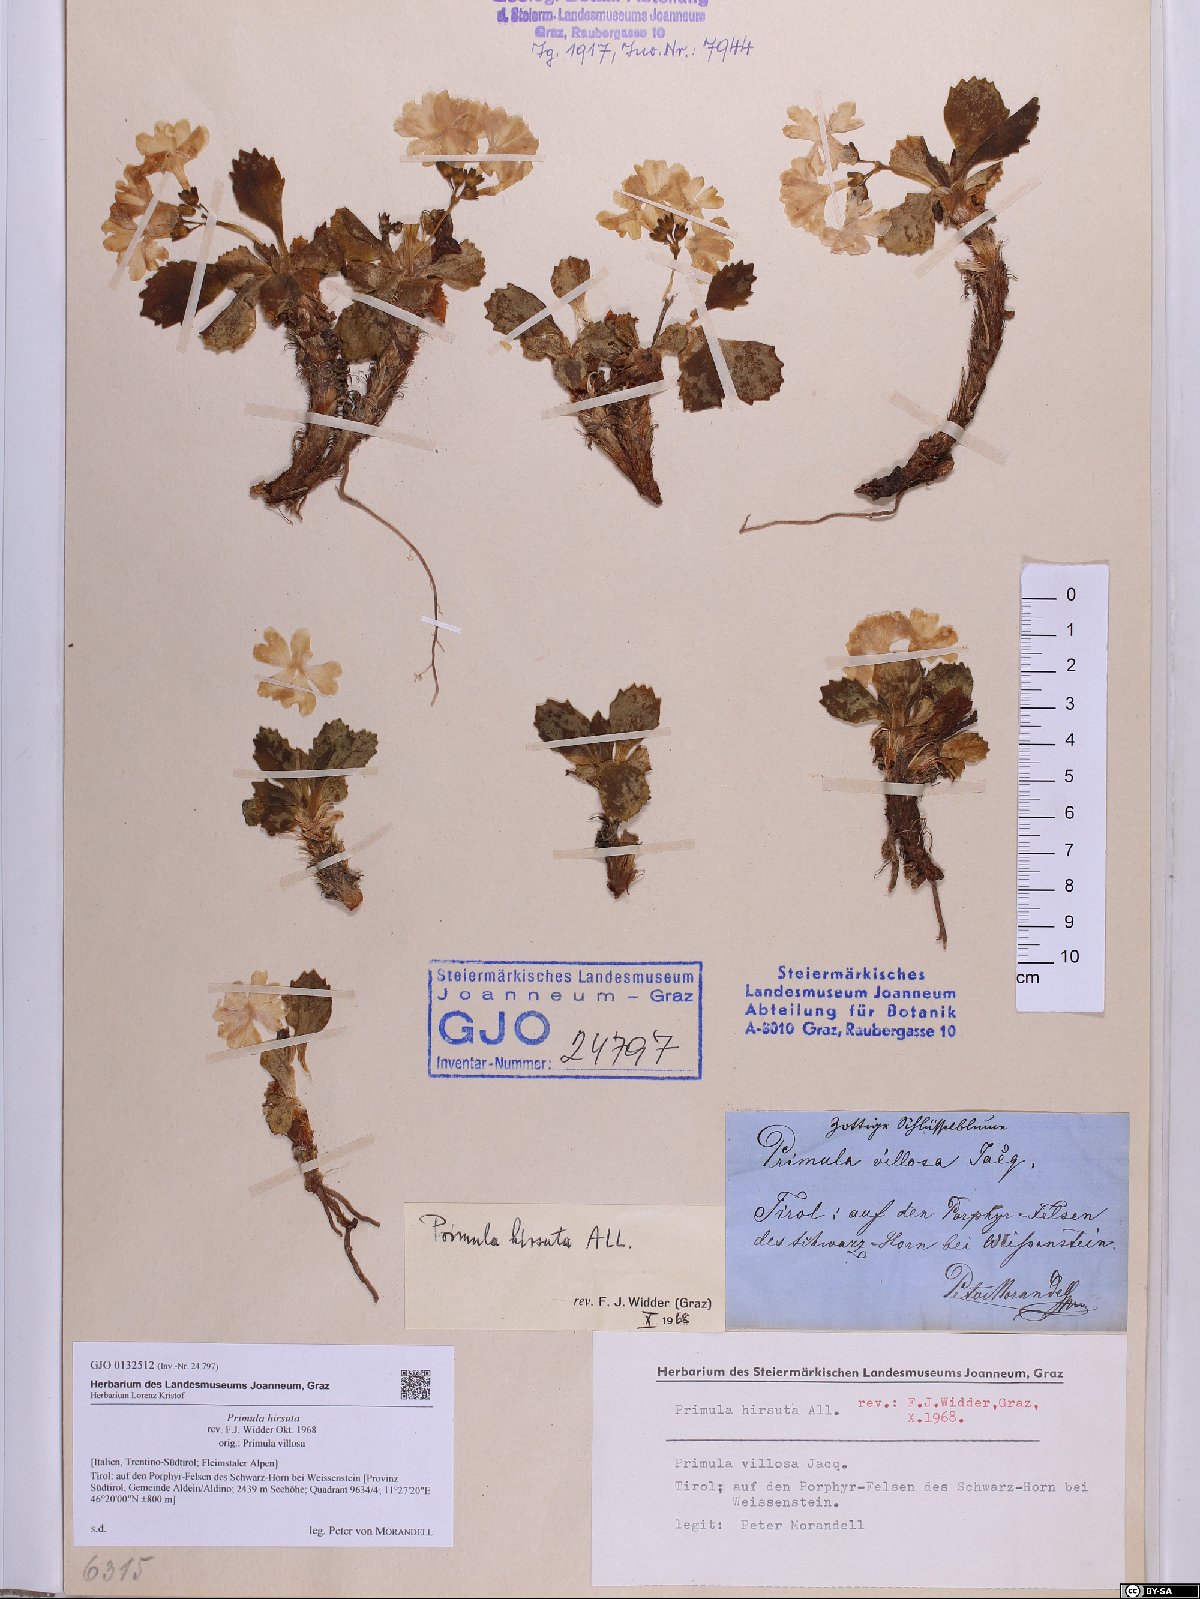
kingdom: Plantae
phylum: Tracheophyta
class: Magnoliopsida
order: Ericales
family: Primulaceae
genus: Primula
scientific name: Primula hirsuta
